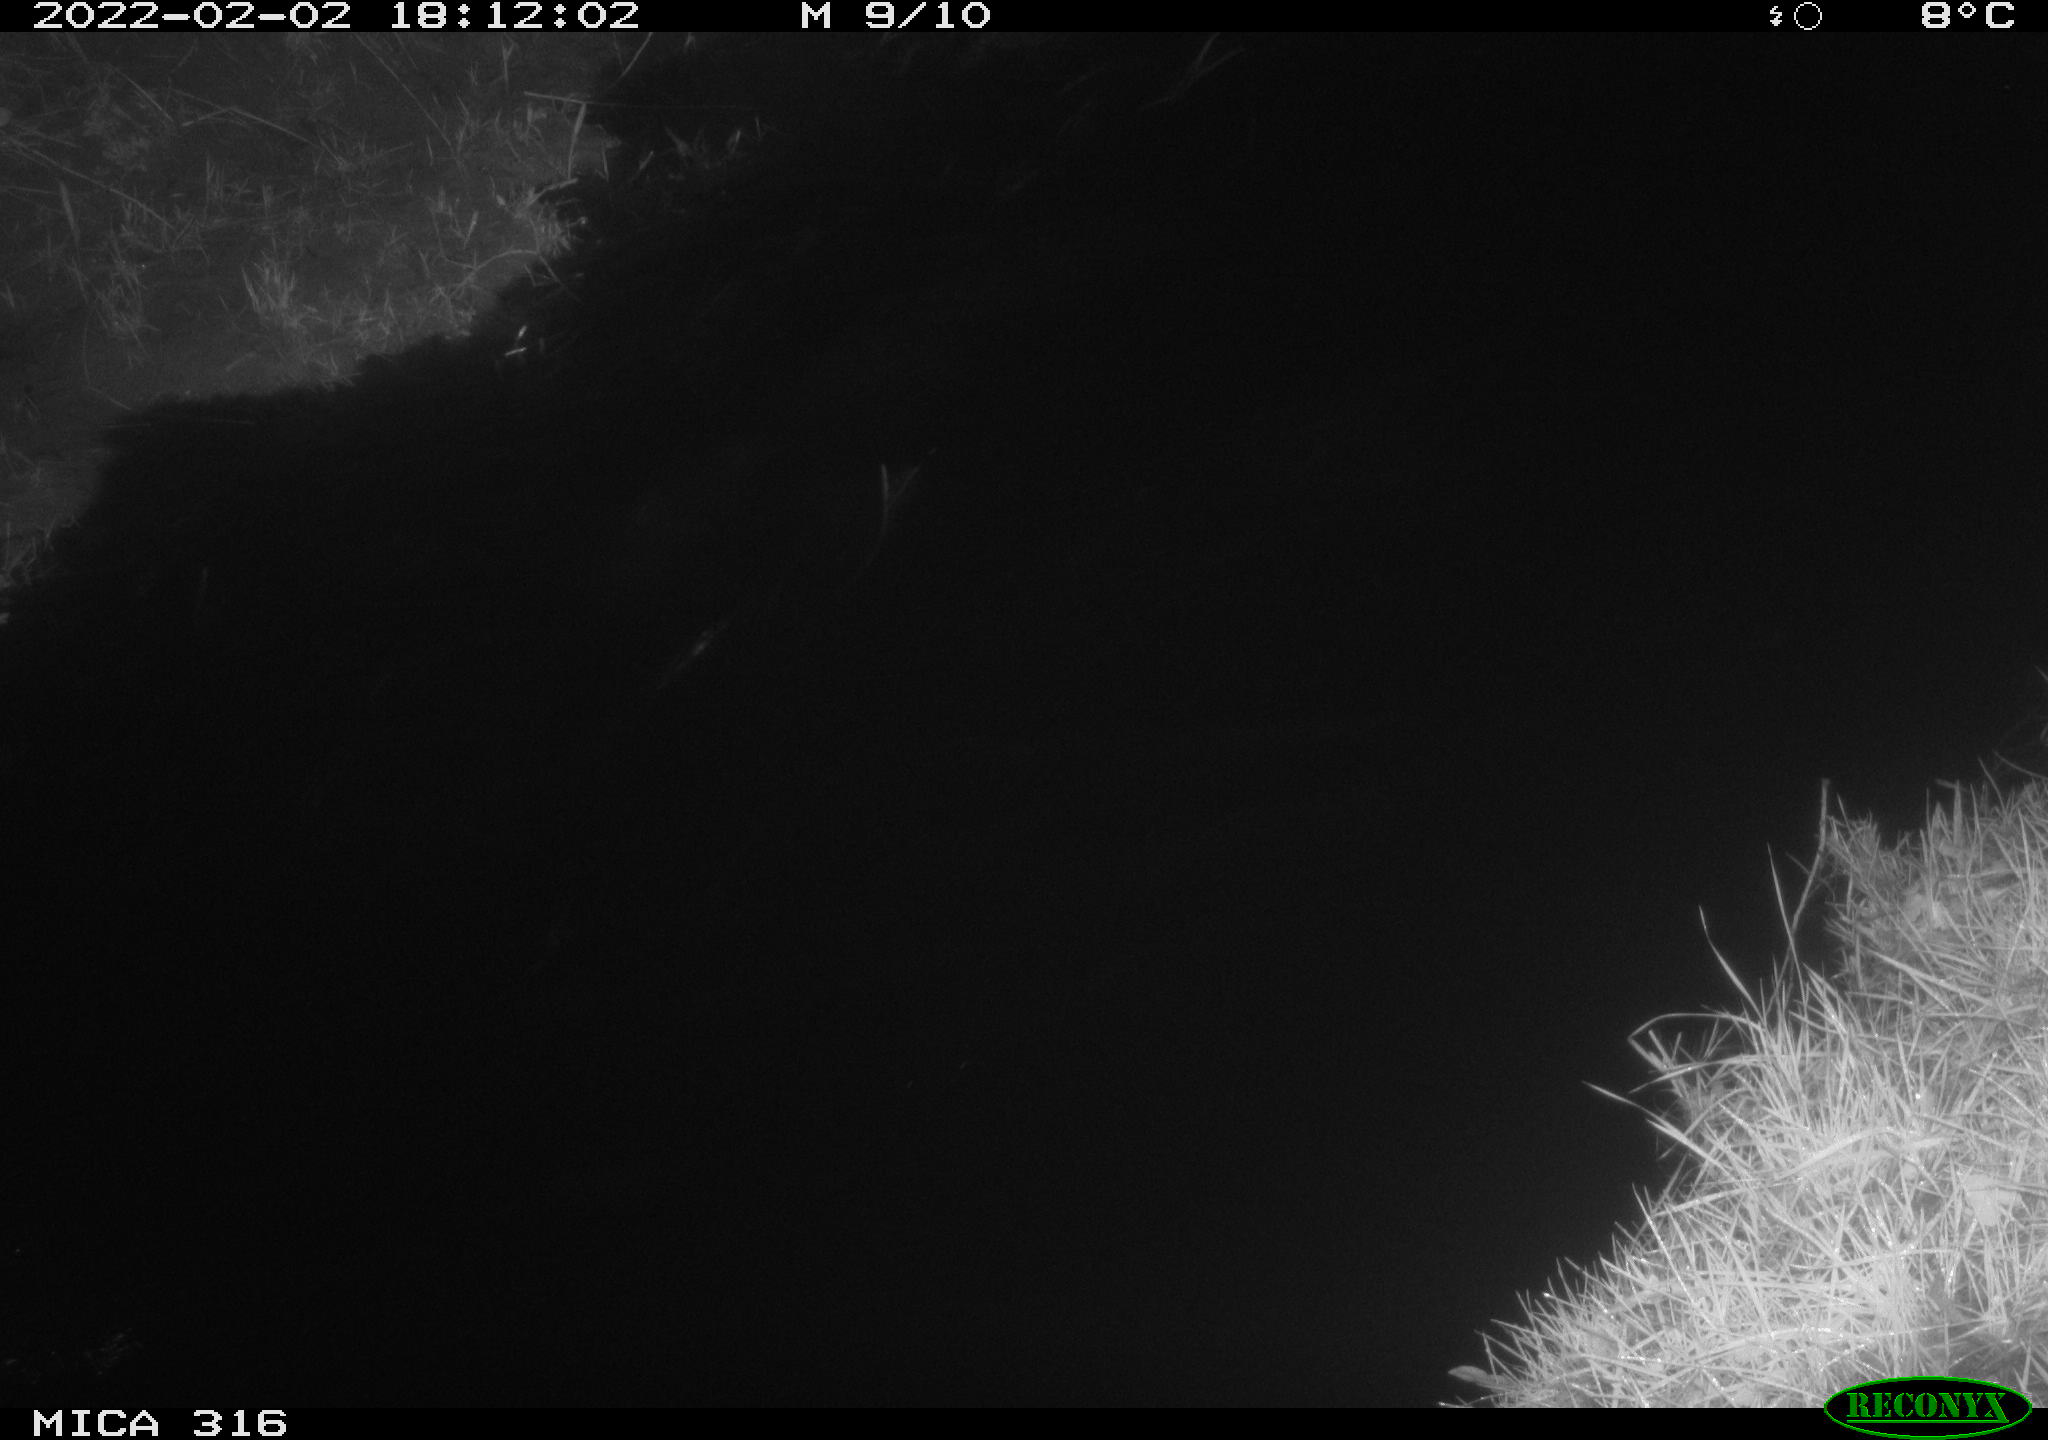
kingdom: Animalia
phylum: Chordata
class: Aves
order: Anseriformes
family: Anatidae
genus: Anas
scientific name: Anas platyrhynchos
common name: Mallard
